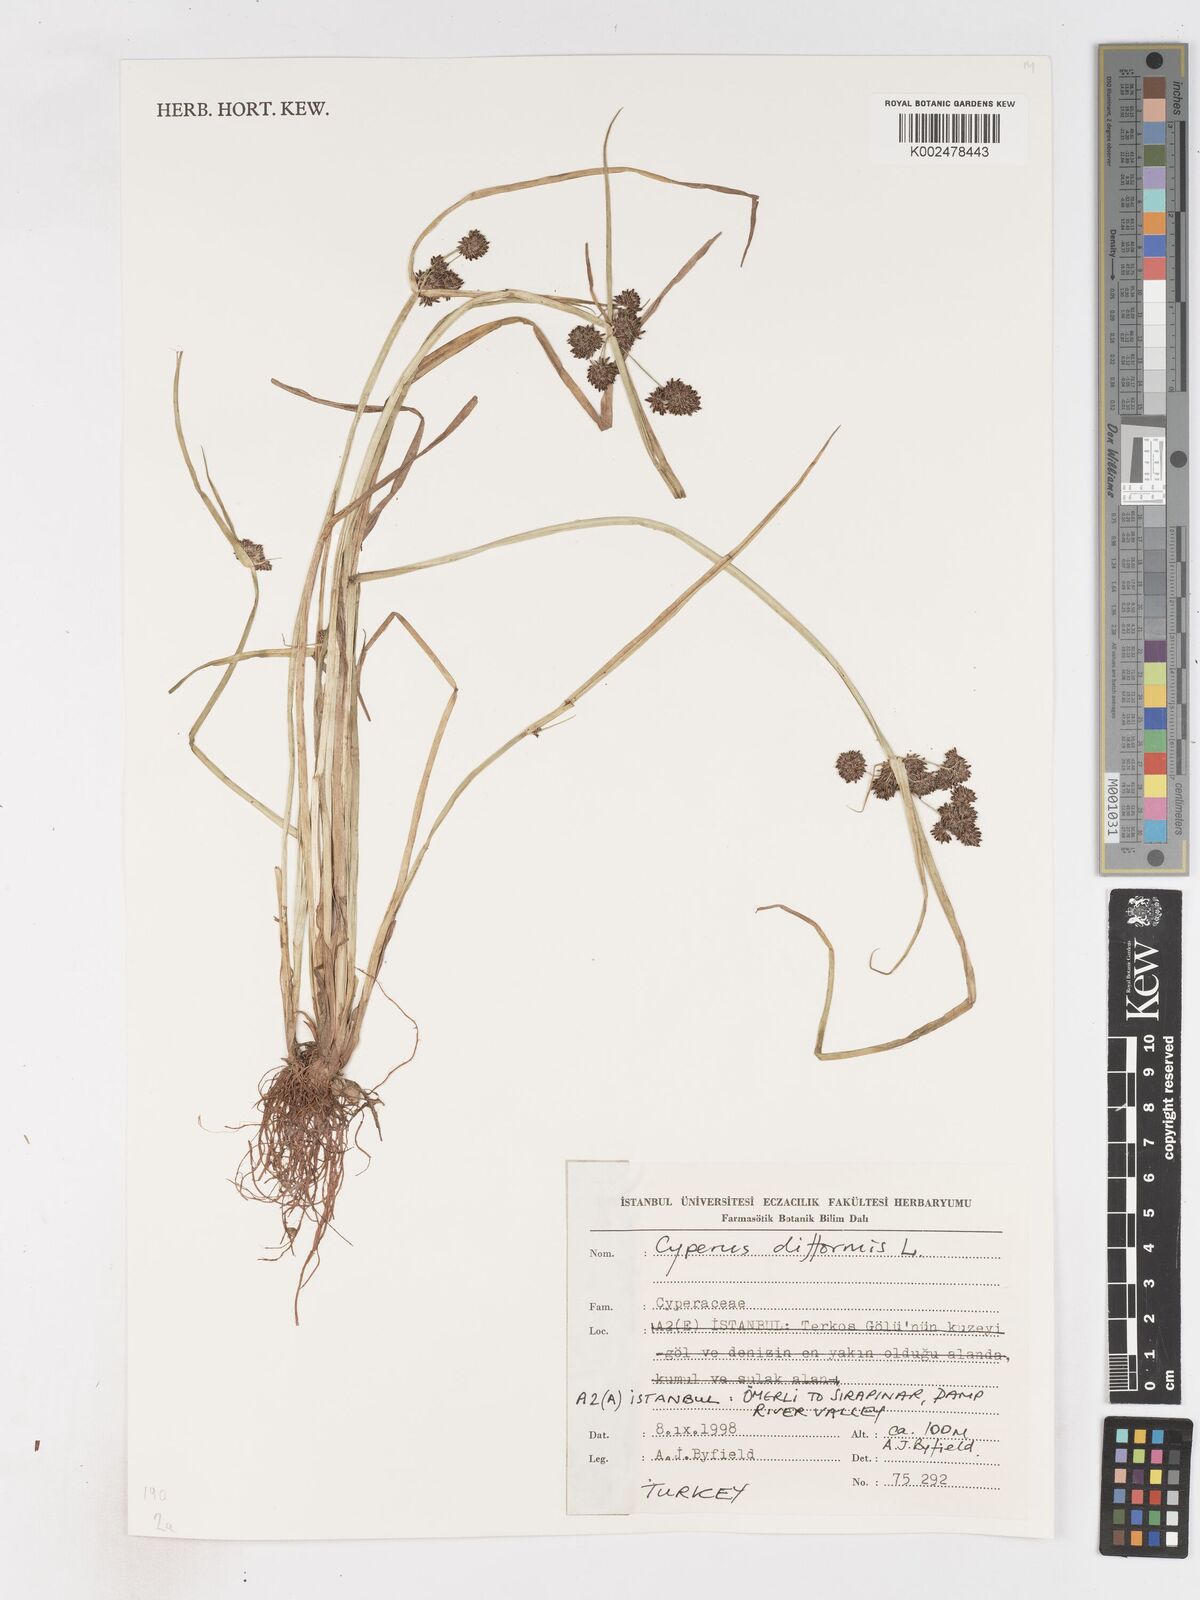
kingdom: Plantae
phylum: Tracheophyta
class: Liliopsida
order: Poales
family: Cyperaceae
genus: Cyperus
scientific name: Cyperus difformis
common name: Variable flatsedge
